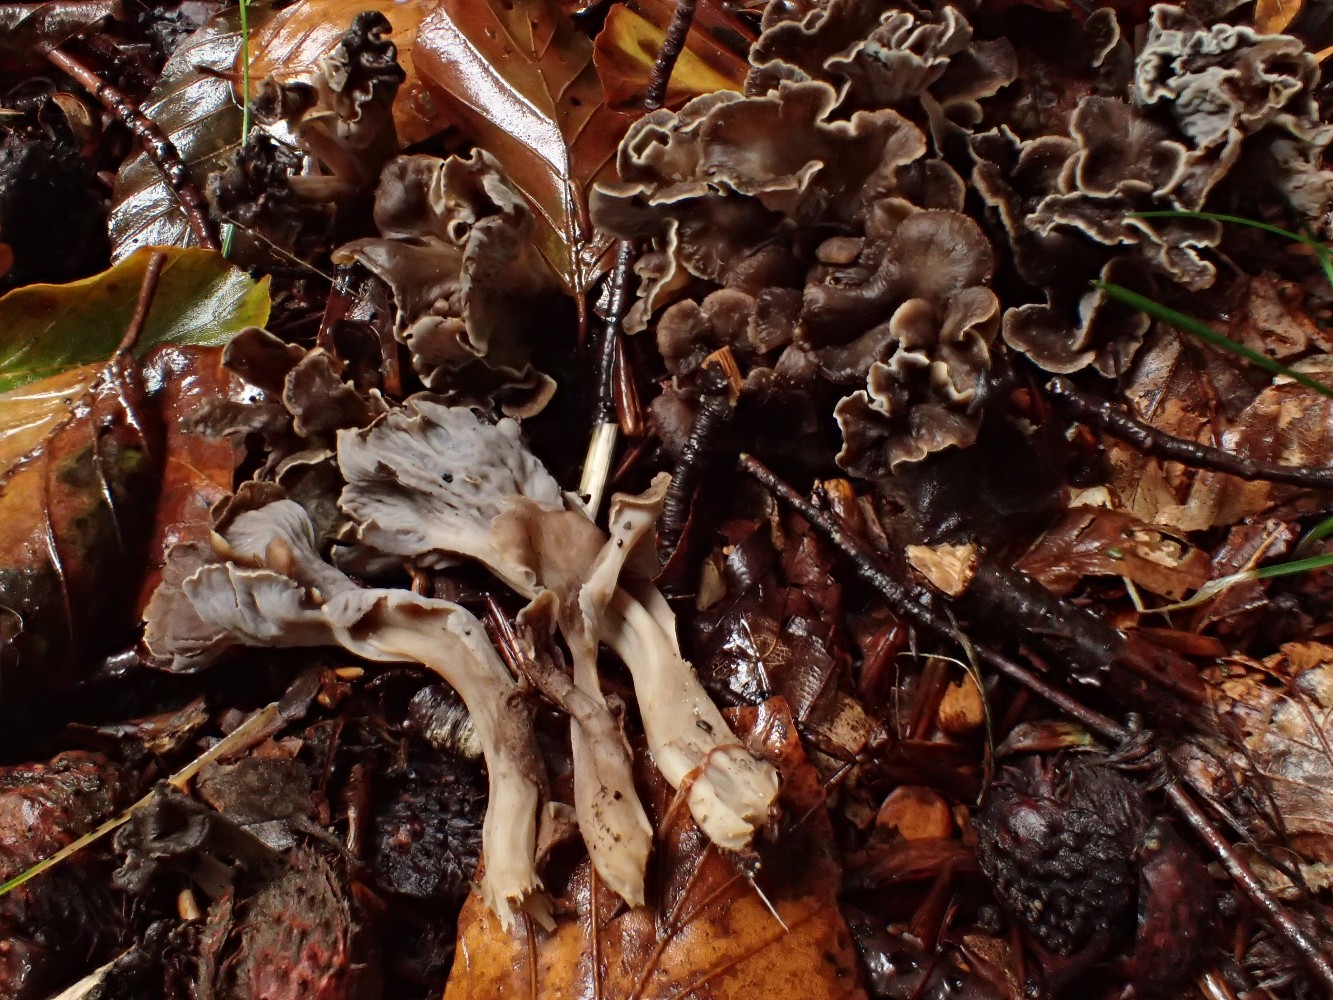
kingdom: Fungi
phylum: Basidiomycota
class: Agaricomycetes
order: Cantharellales
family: Hydnaceae
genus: Craterellus
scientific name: Craterellus undulatus
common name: liden kantarel
